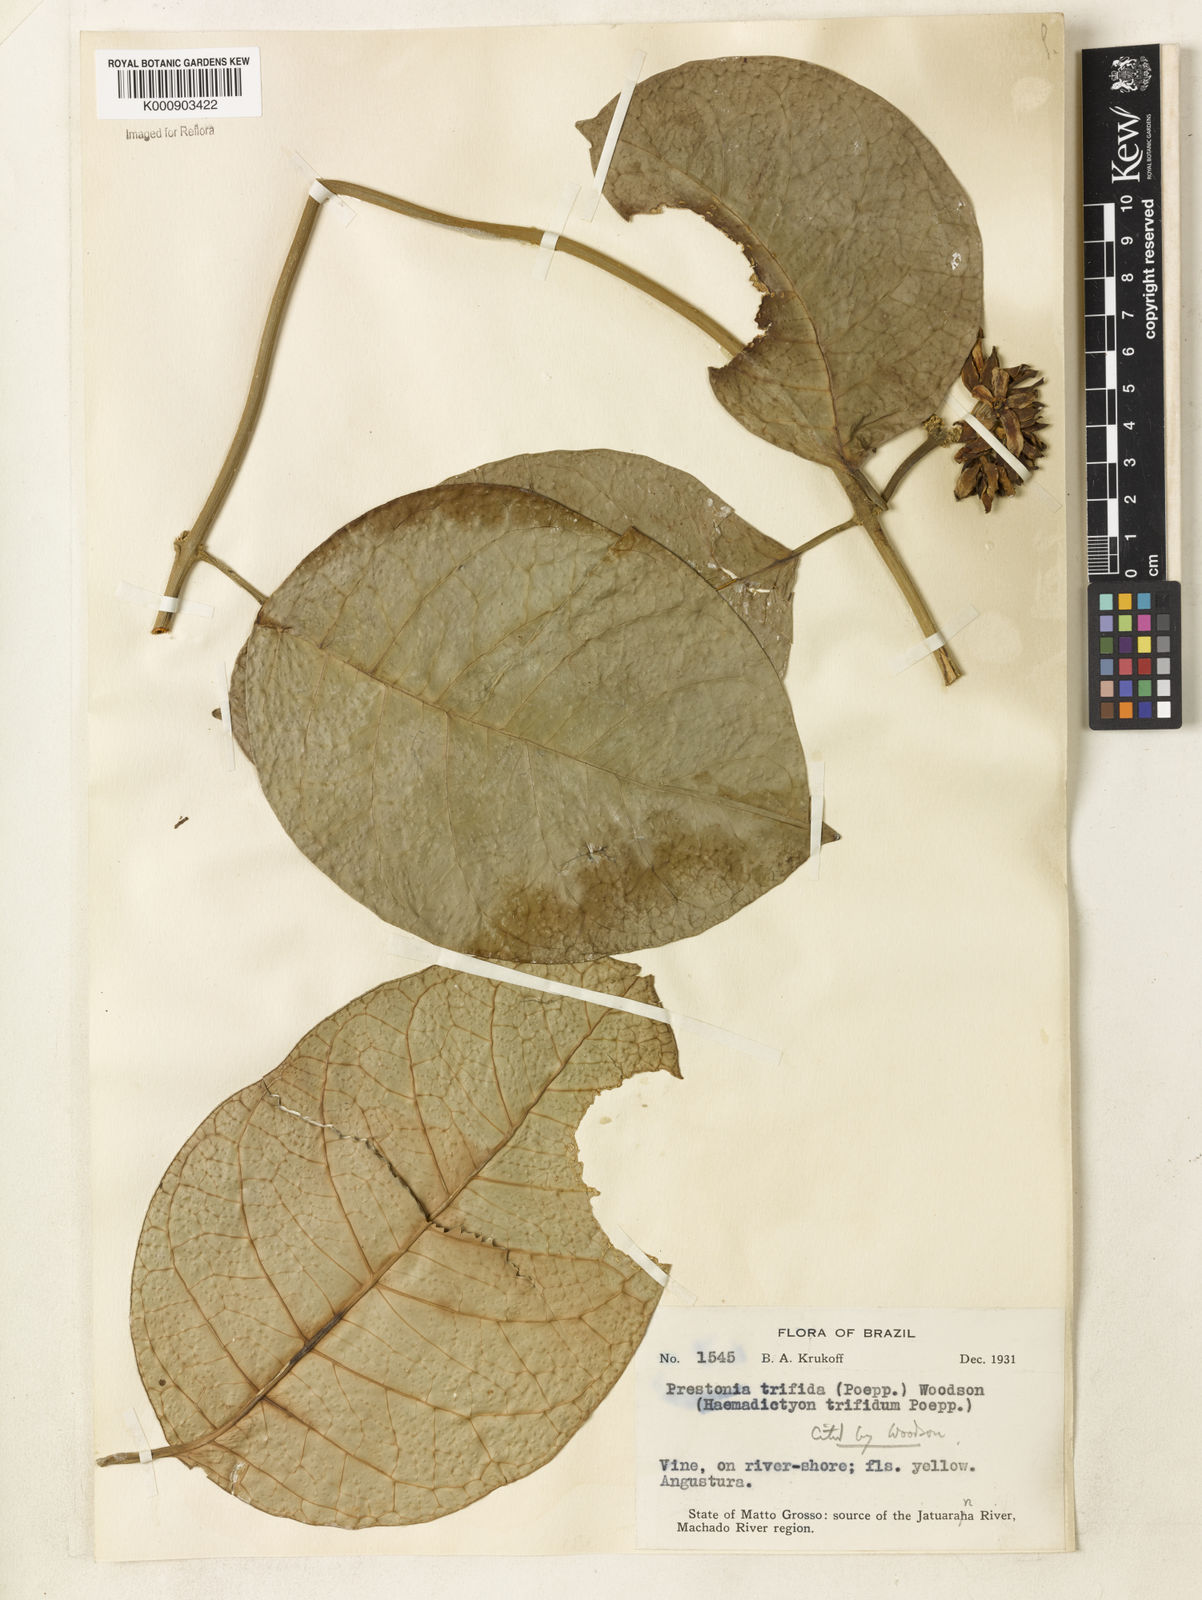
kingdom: Plantae
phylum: Tracheophyta
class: Magnoliopsida
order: Gentianales
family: Apocynaceae
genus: Prestonia
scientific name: Prestonia trifida
